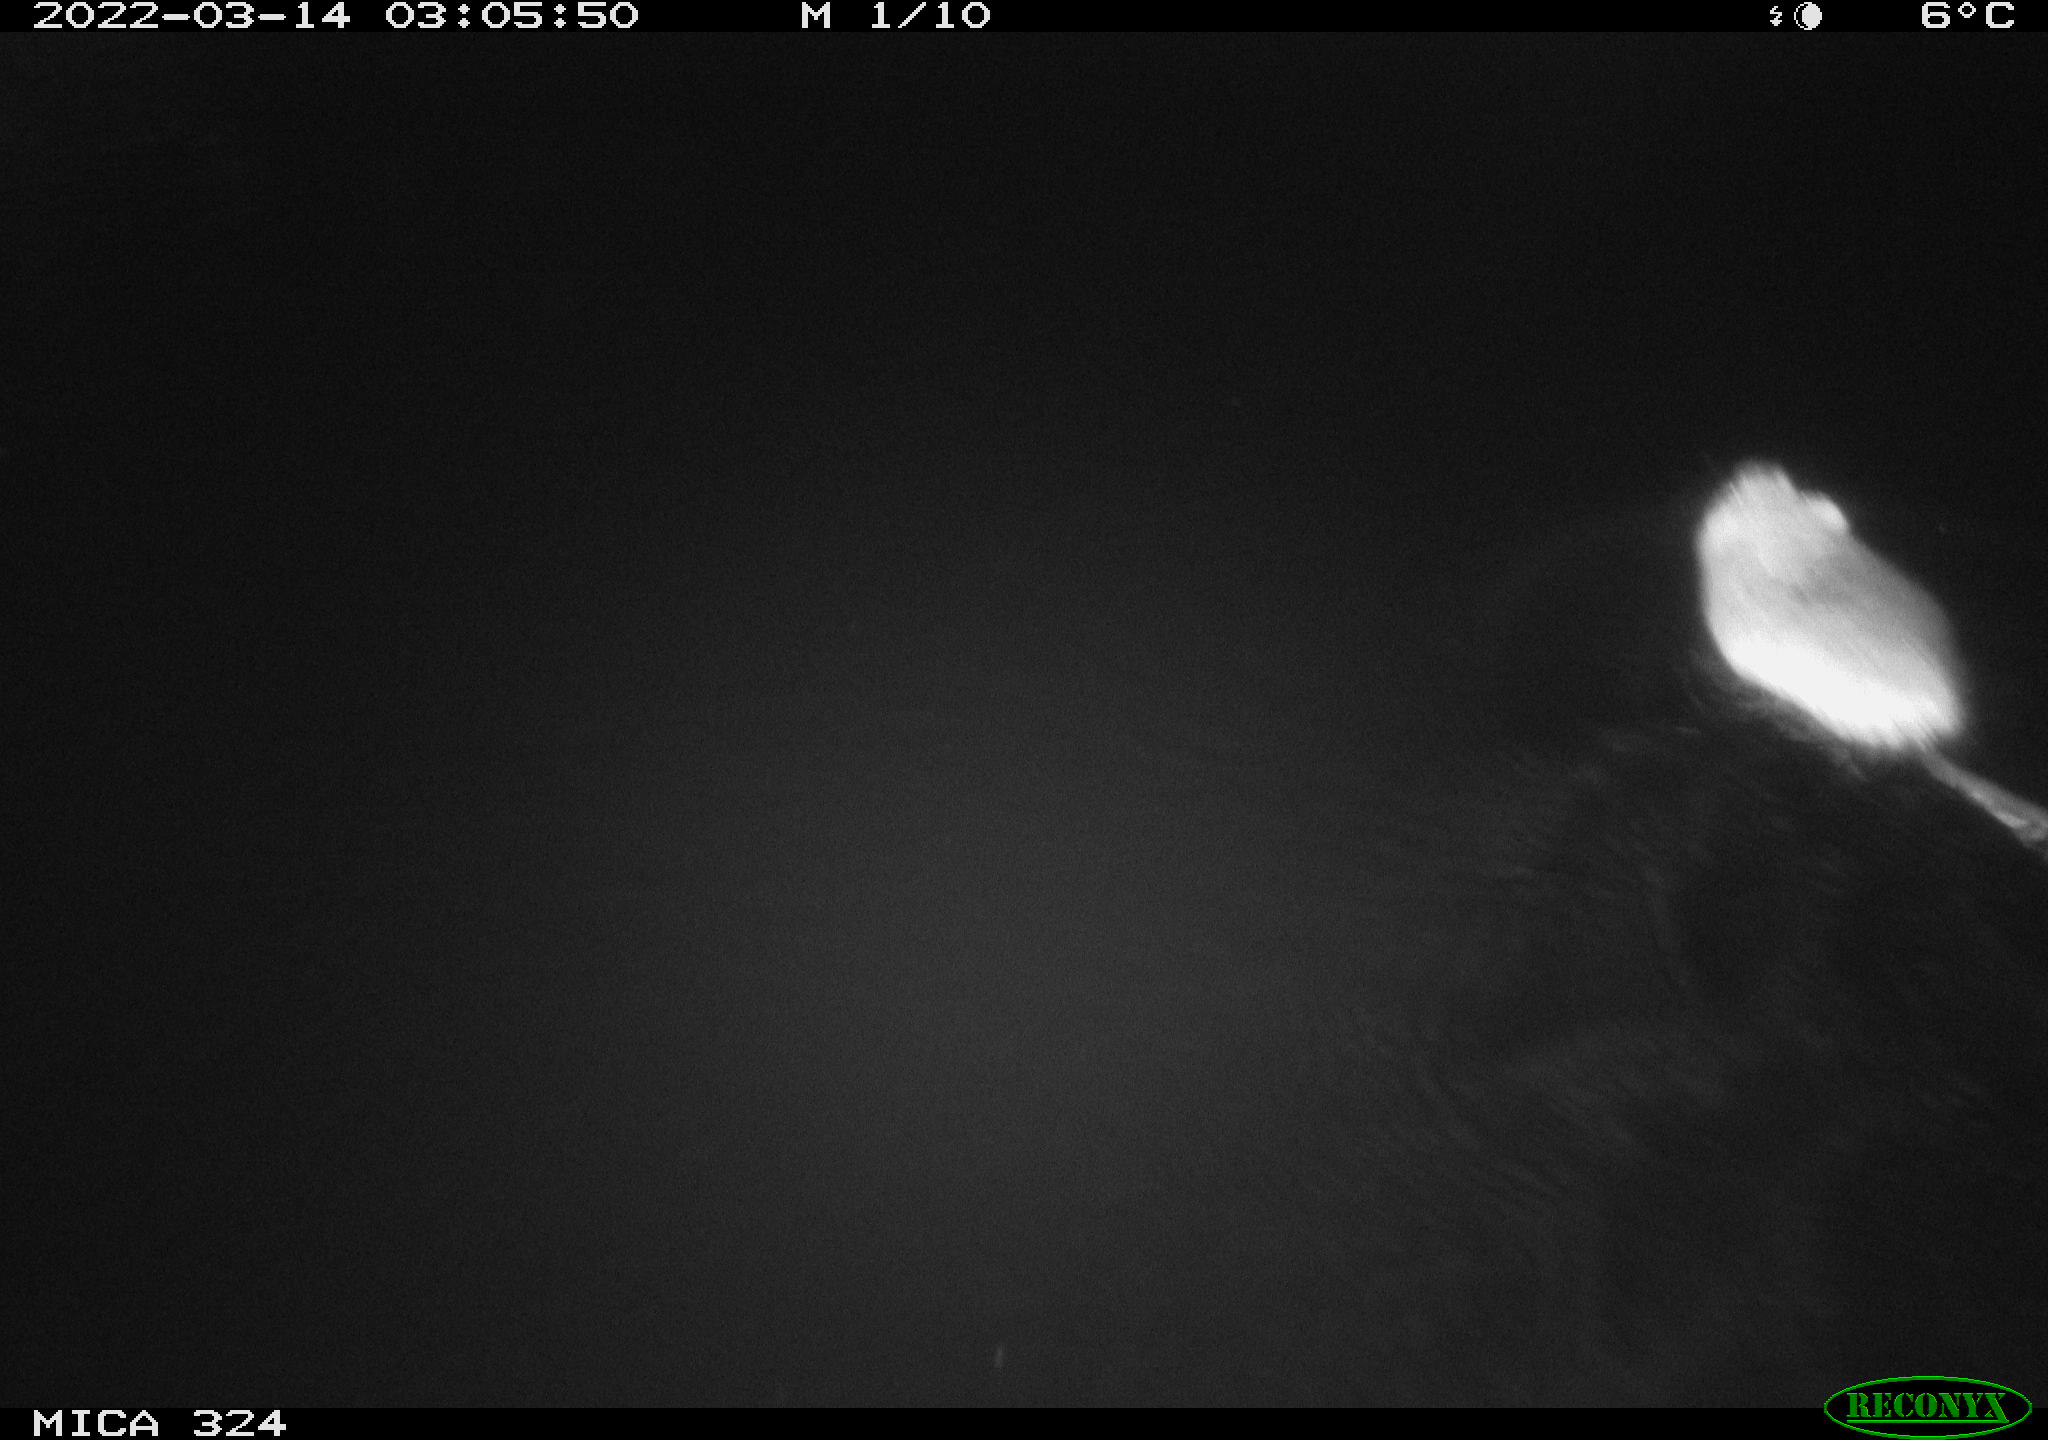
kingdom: Animalia
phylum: Chordata
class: Mammalia
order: Rodentia
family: Cricetidae
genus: Ondatra
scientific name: Ondatra zibethicus
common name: Muskrat
